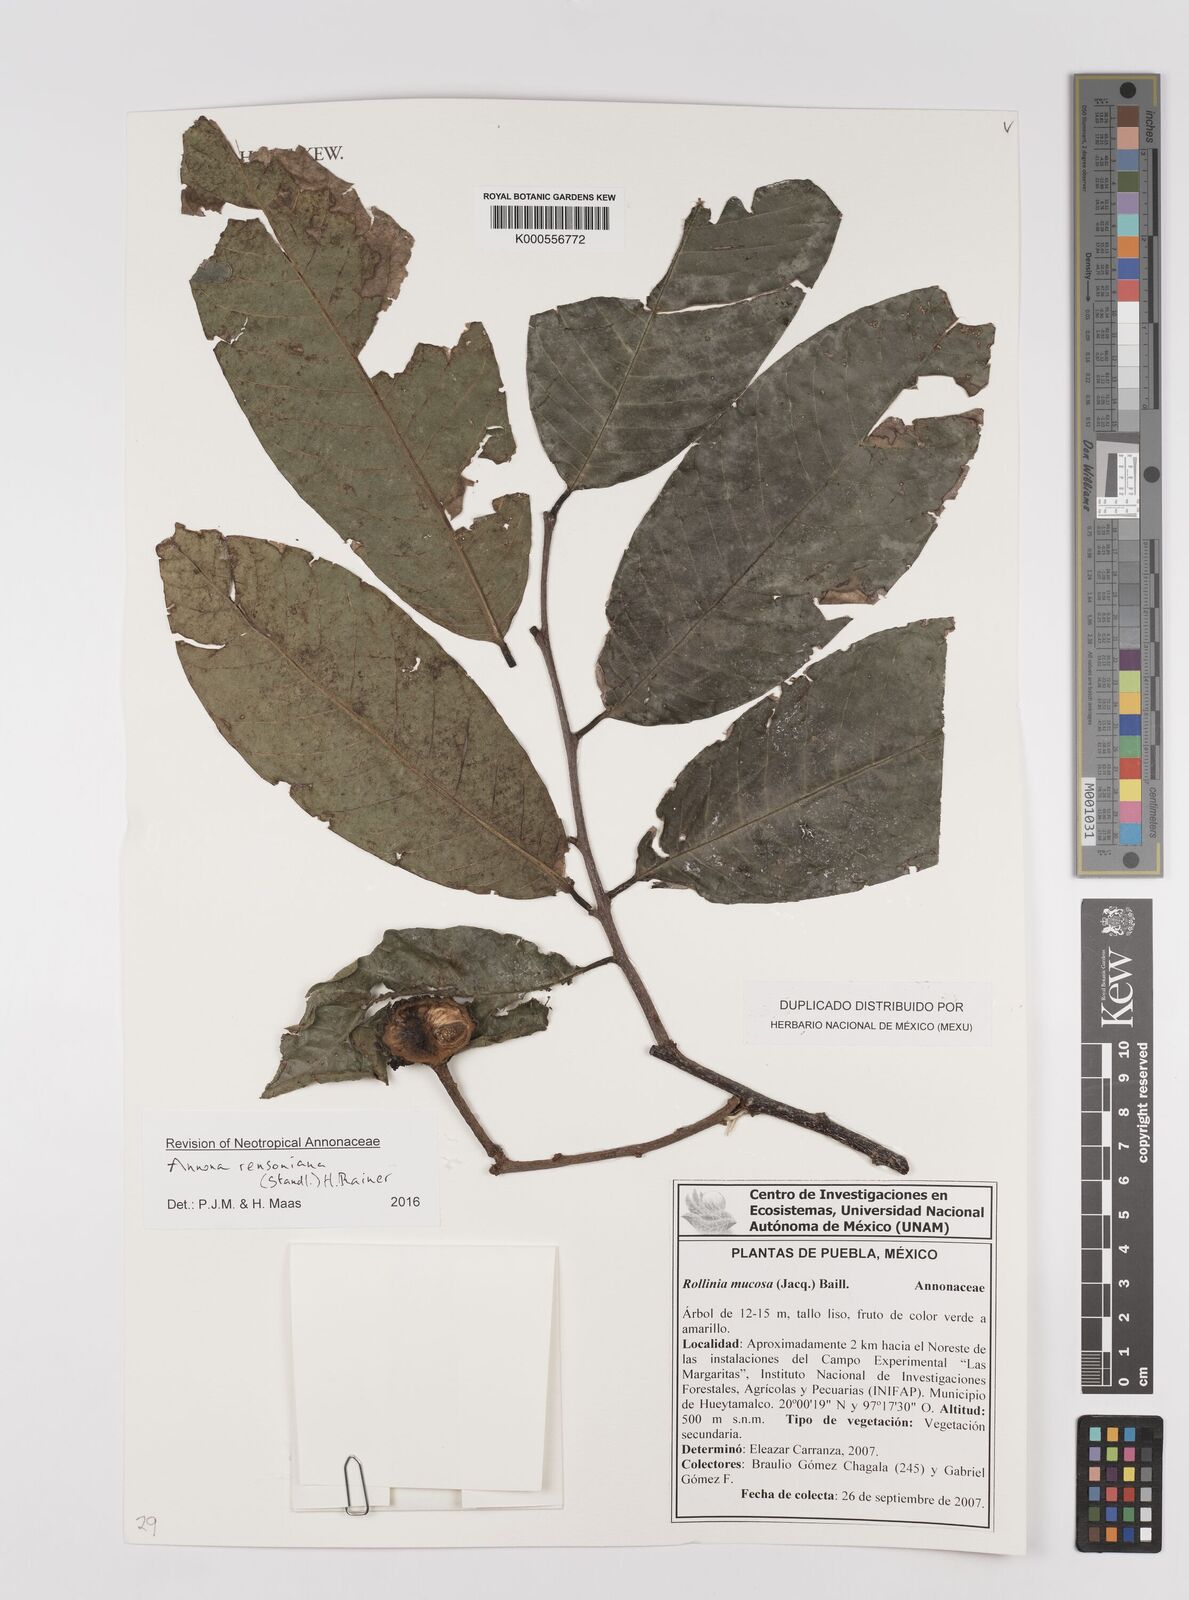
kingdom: Plantae
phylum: Tracheophyta
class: Magnoliopsida
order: Magnoliales
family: Annonaceae
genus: Annona
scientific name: Annona rensoniana
